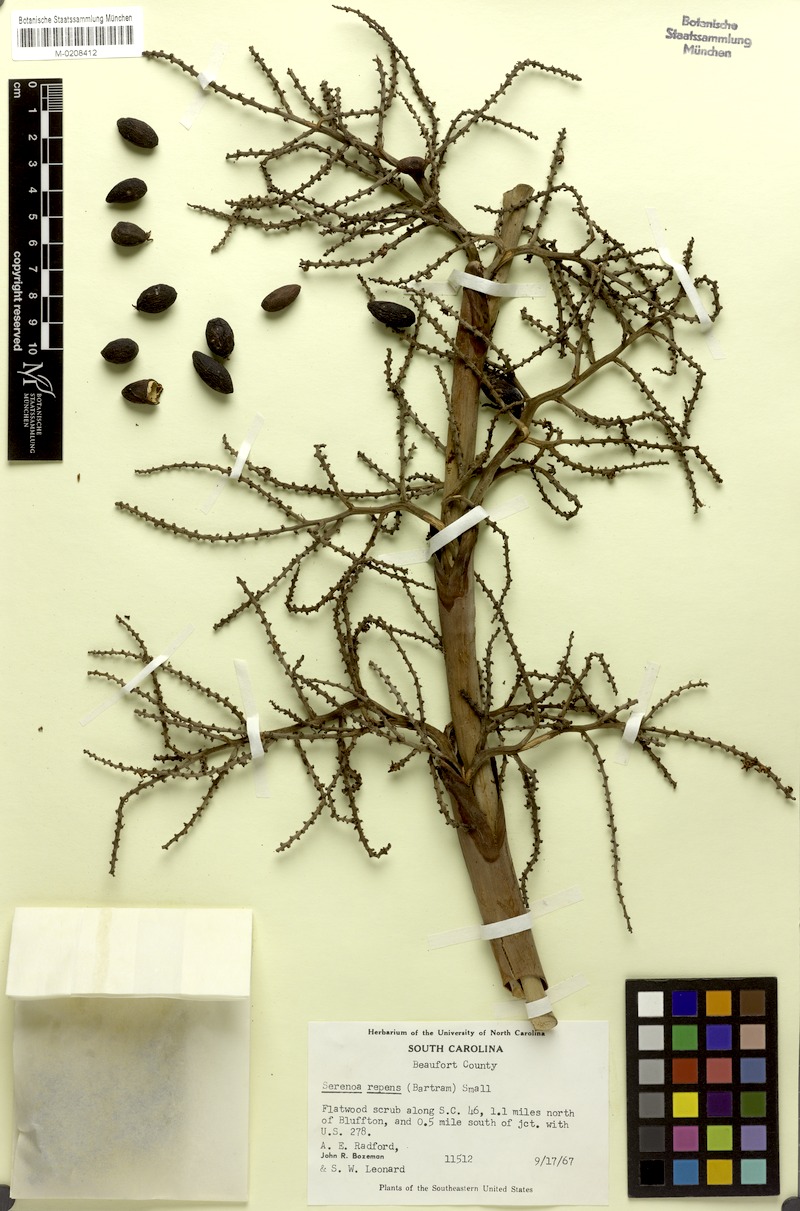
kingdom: Plantae
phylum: Tracheophyta
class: Liliopsida
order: Arecales
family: Arecaceae
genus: Serenoa
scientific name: Serenoa repens
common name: Saw-palmetto
